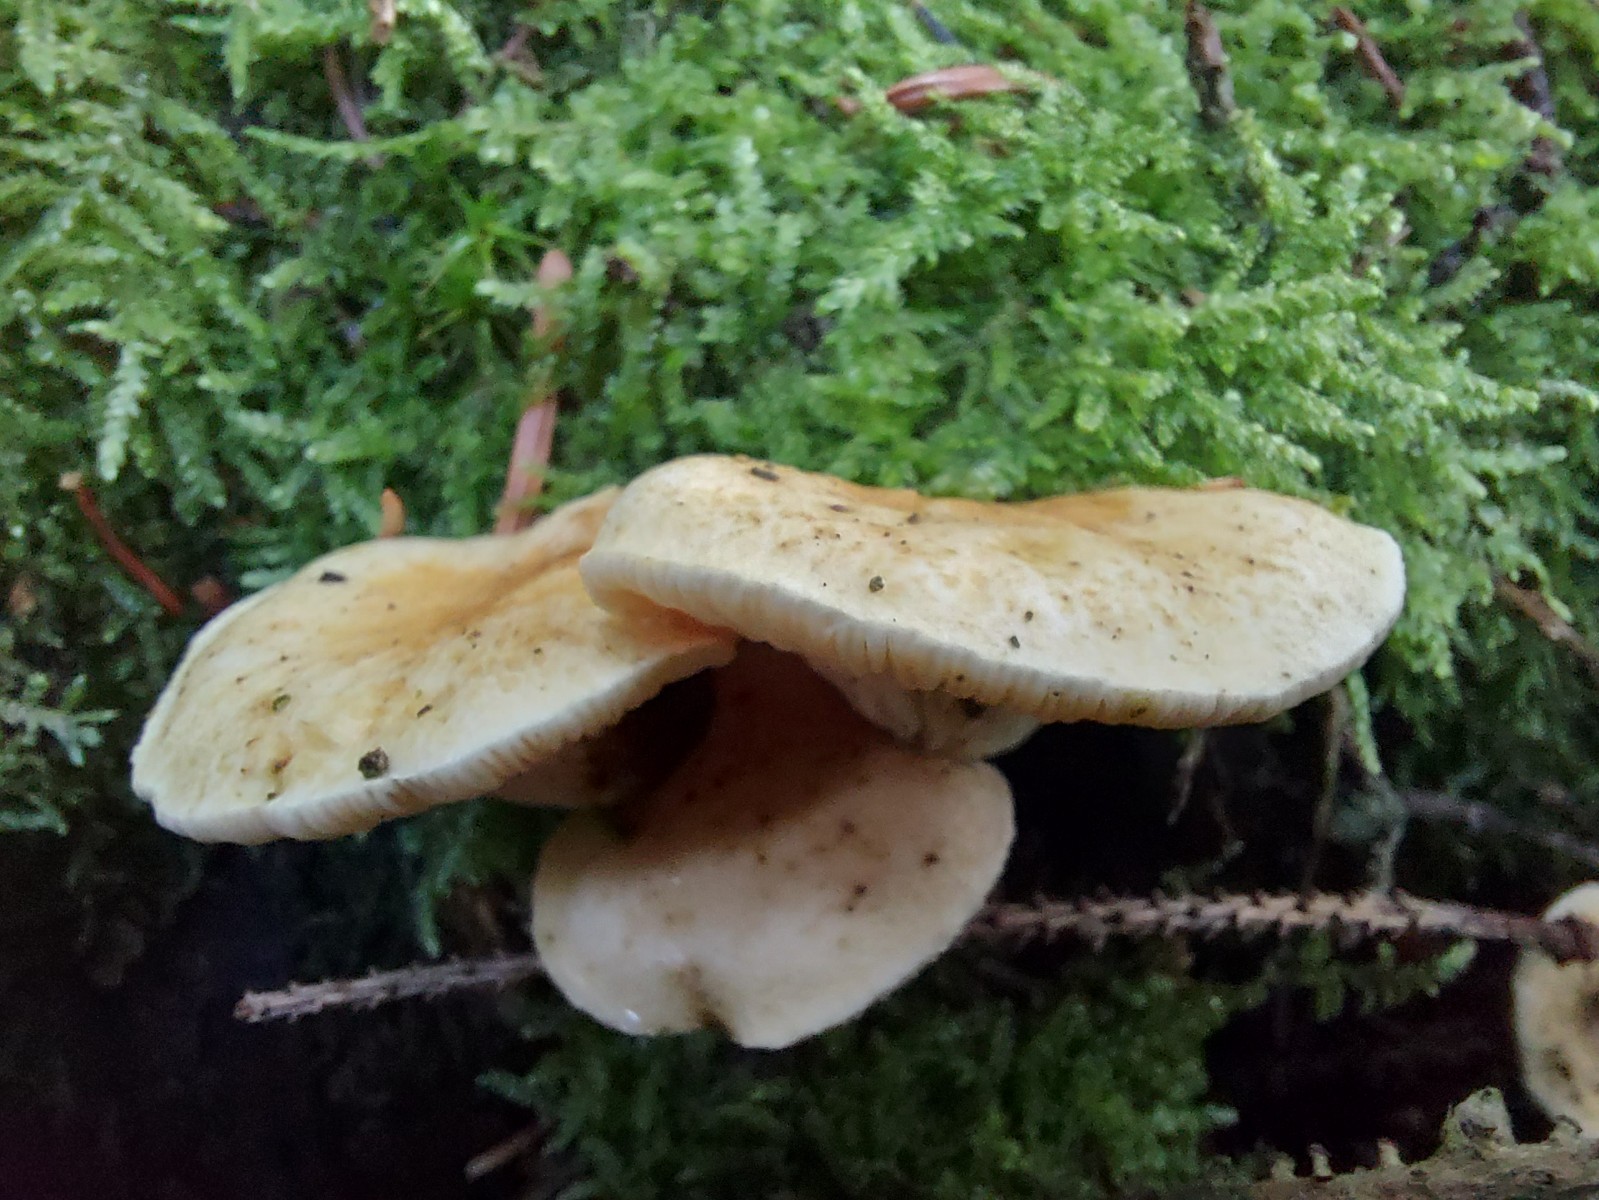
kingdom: Fungi
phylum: Basidiomycota
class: Agaricomycetes
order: Boletales
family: Hygrophoropsidaceae
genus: Hygrophoropsis
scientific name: Hygrophoropsis pallida
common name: bleg orangekantarel
